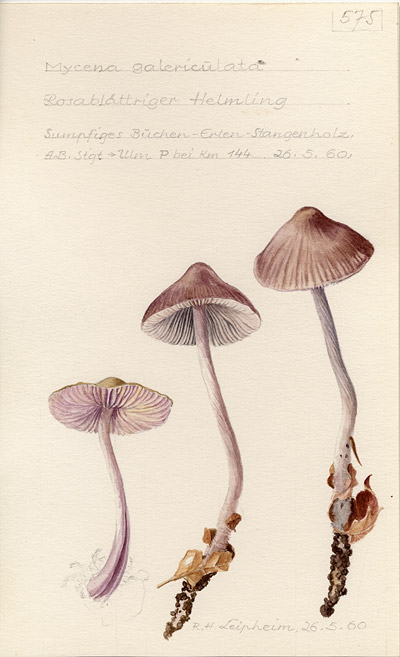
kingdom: Fungi
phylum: Basidiomycota
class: Agaricomycetes
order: Agaricales
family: Mycenaceae
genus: Mycena
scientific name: Mycena galericulata
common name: Bonnet mycena
